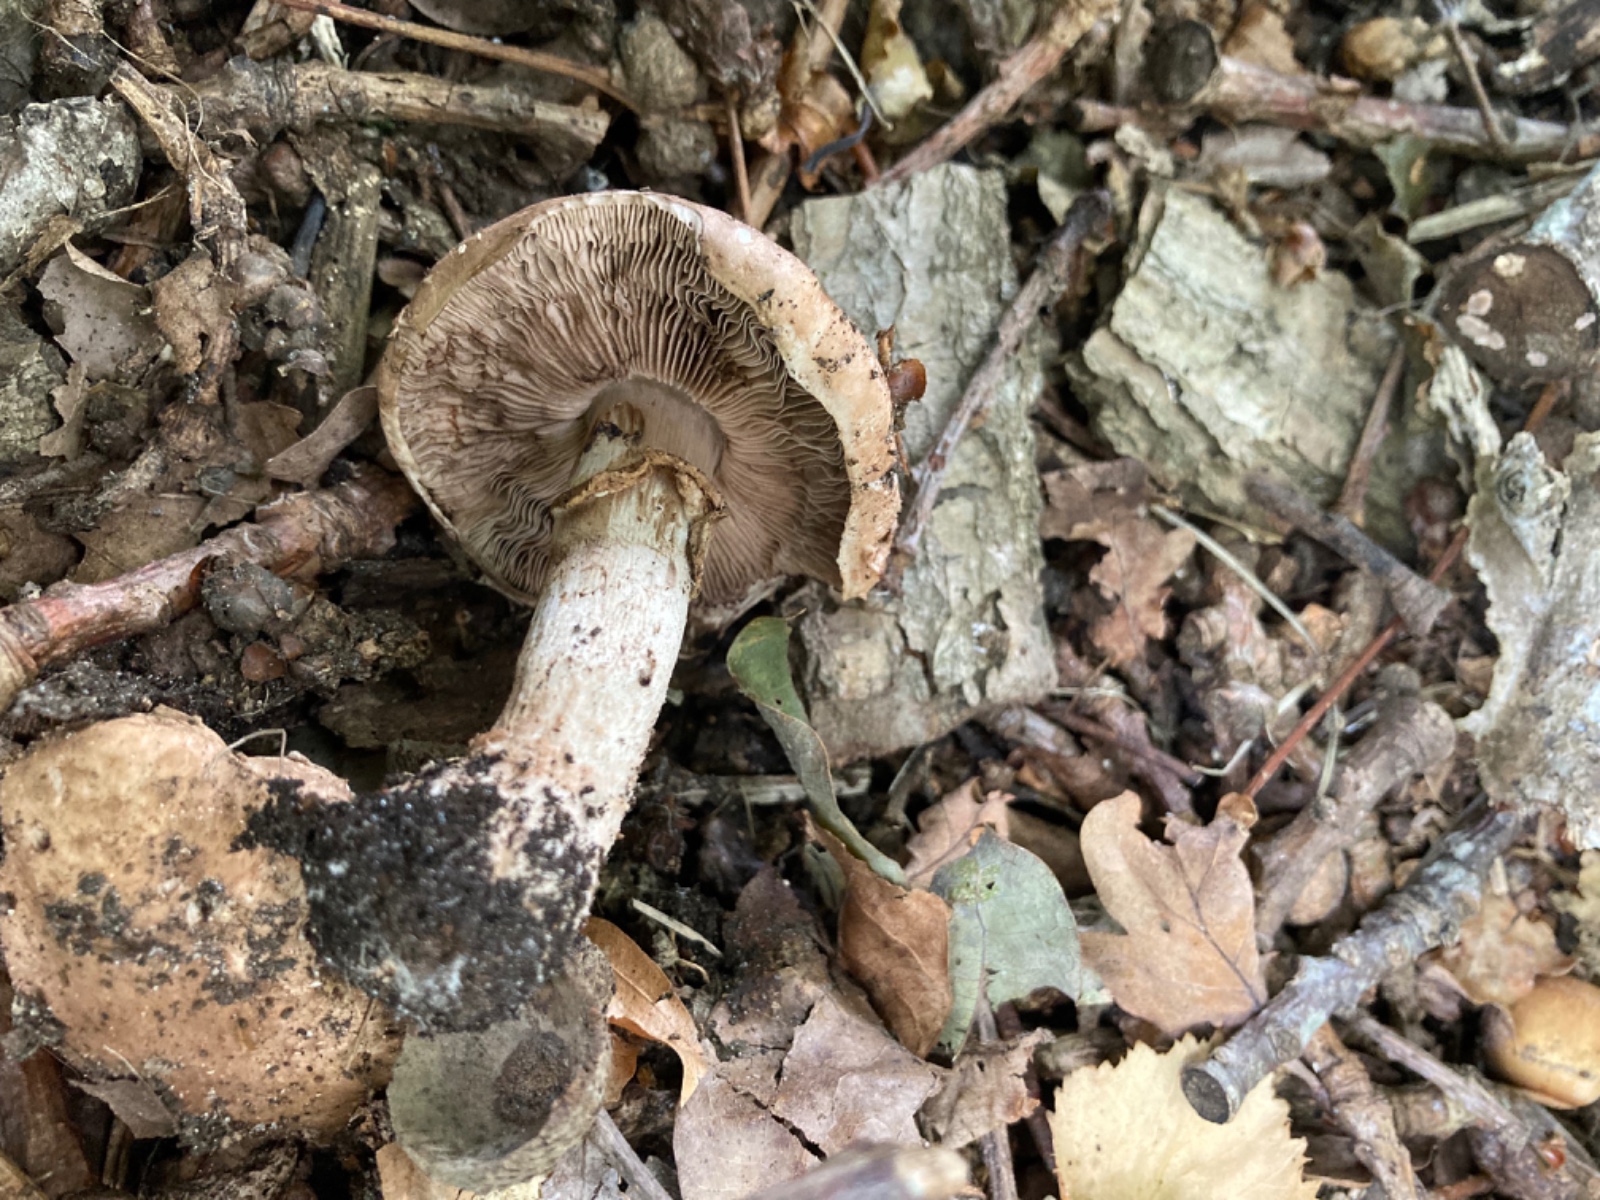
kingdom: Fungi
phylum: Basidiomycota
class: Agaricomycetes
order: Agaricales
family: Agaricaceae
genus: Agaricus
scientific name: Agaricus
